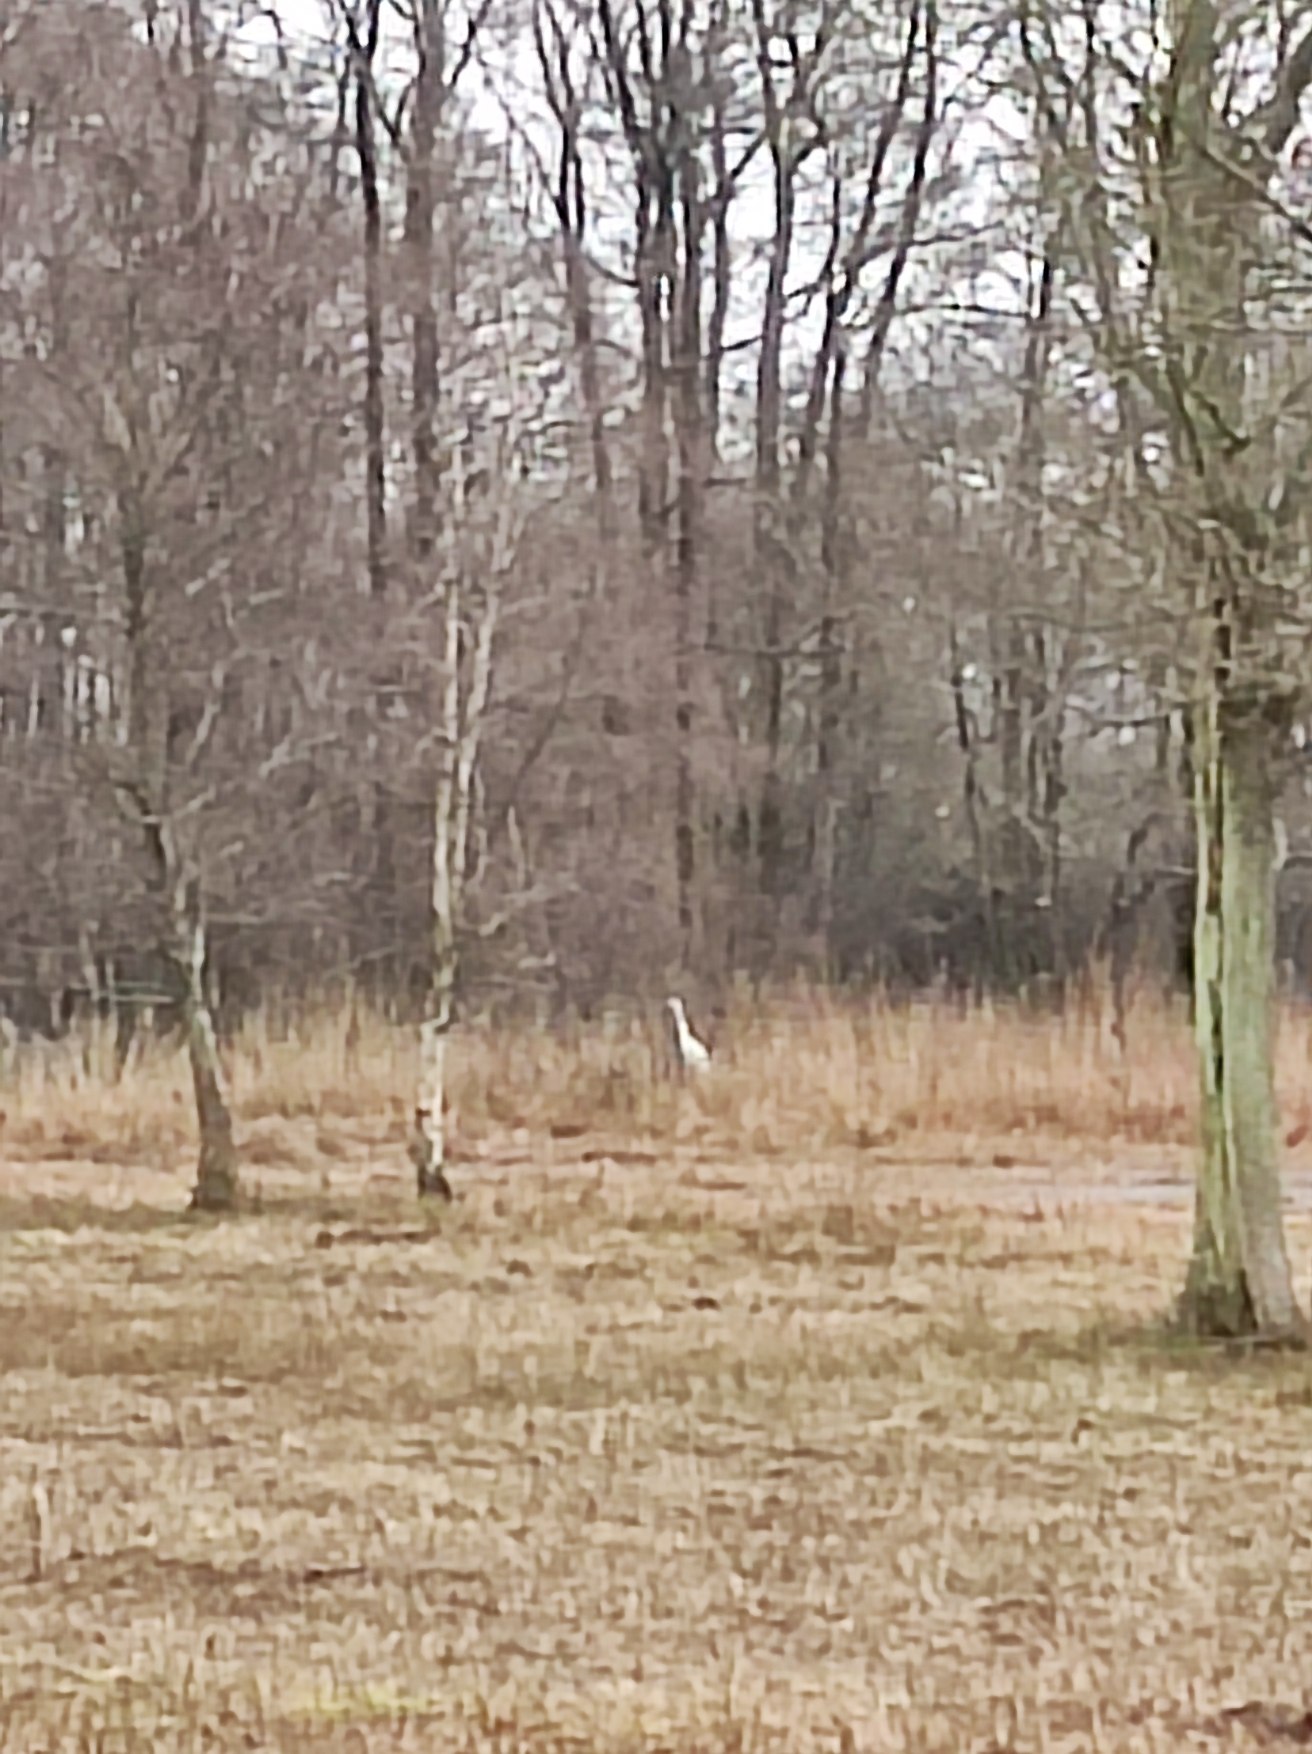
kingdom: Animalia
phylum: Chordata
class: Aves
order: Pelecaniformes
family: Ardeidae
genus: Ardea
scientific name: Ardea alba
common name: Sølvhejre
